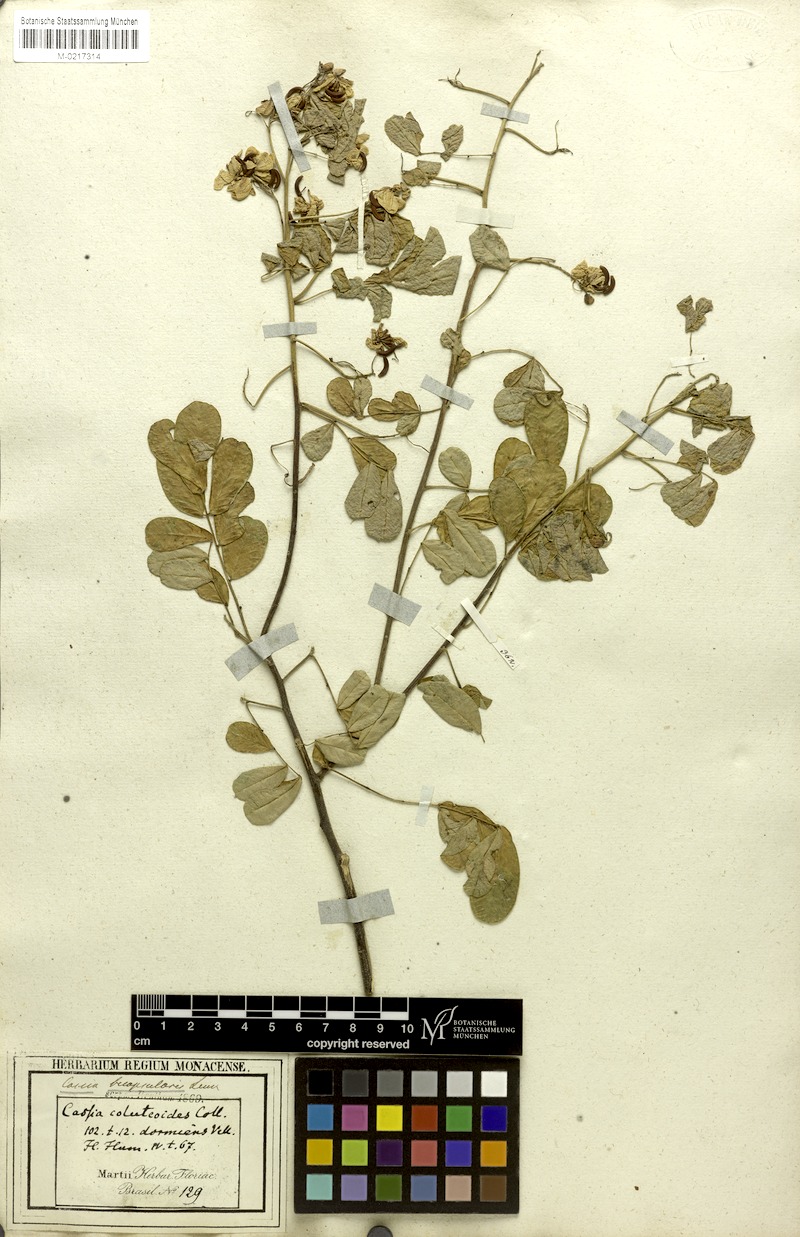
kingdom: Plantae
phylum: Tracheophyta
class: Magnoliopsida
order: Fabales
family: Fabaceae
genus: Senna
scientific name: Senna pendula
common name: Easter cassia
